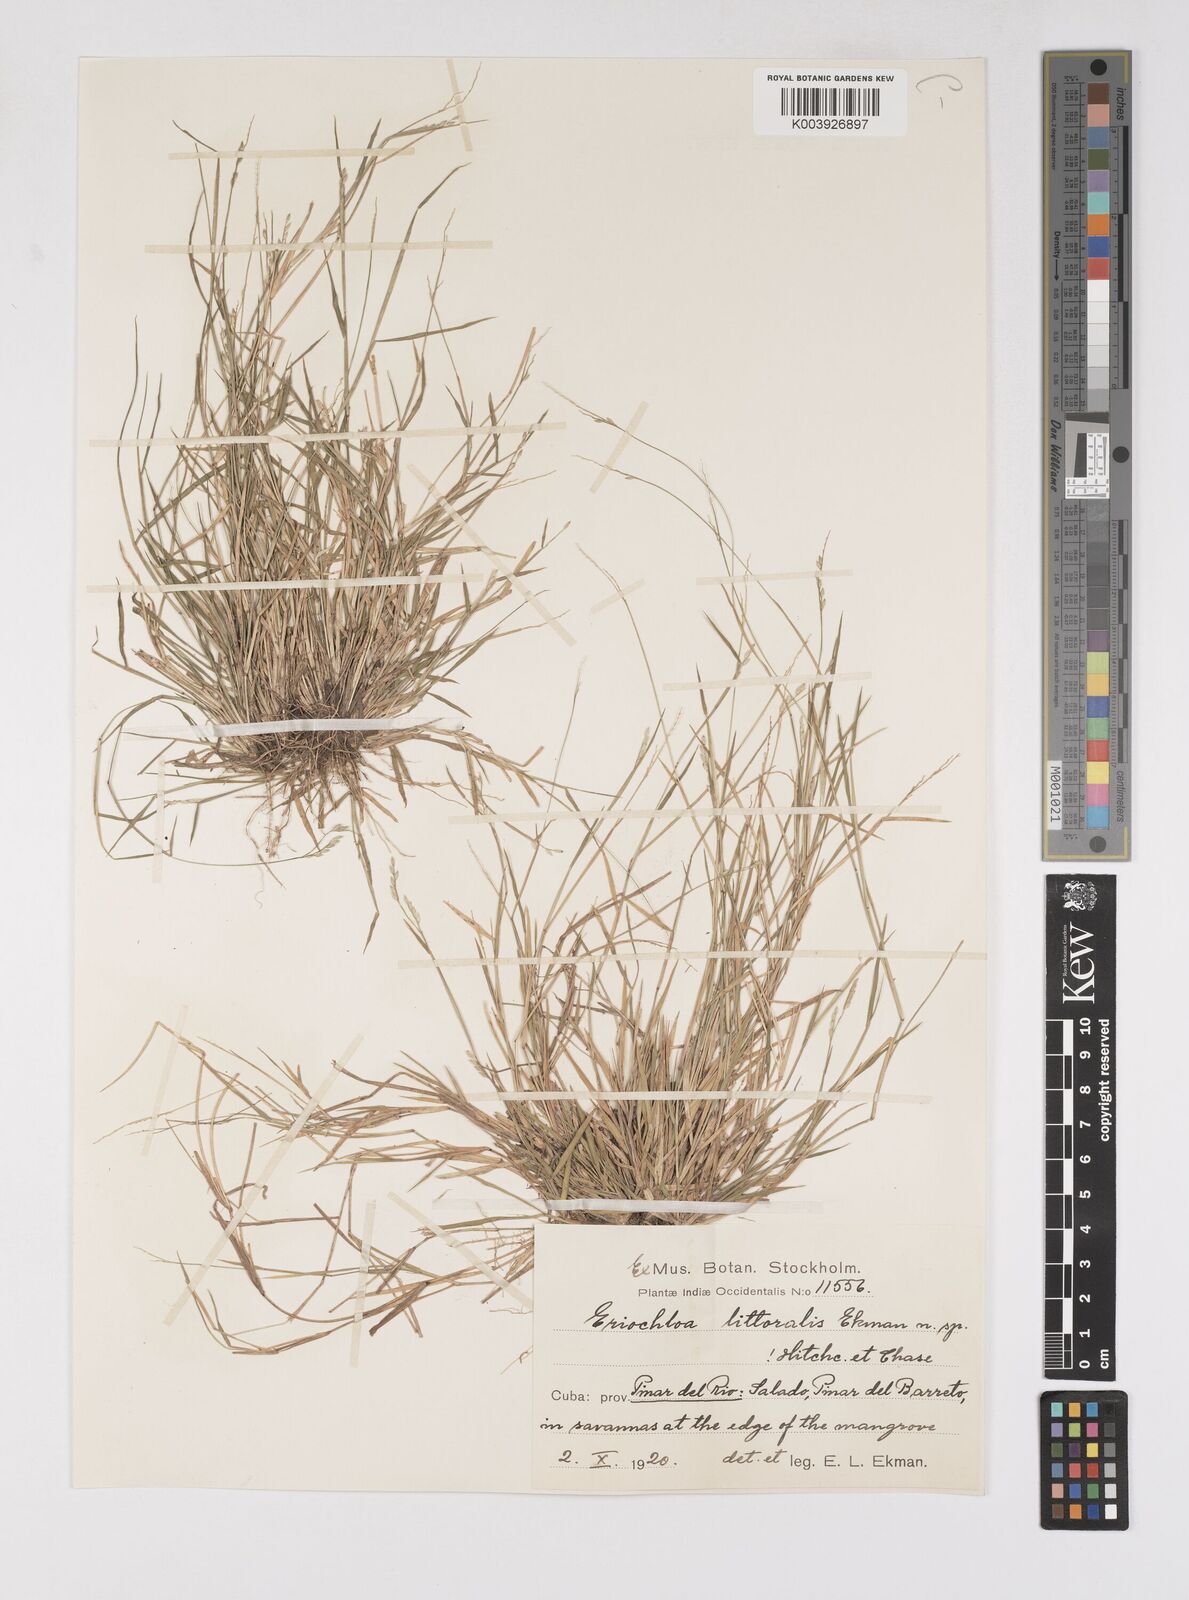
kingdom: Plantae
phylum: Tracheophyta
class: Liliopsida
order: Poales
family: Poaceae
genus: Eriochloa
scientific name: Eriochloa procera
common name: Spring grass
